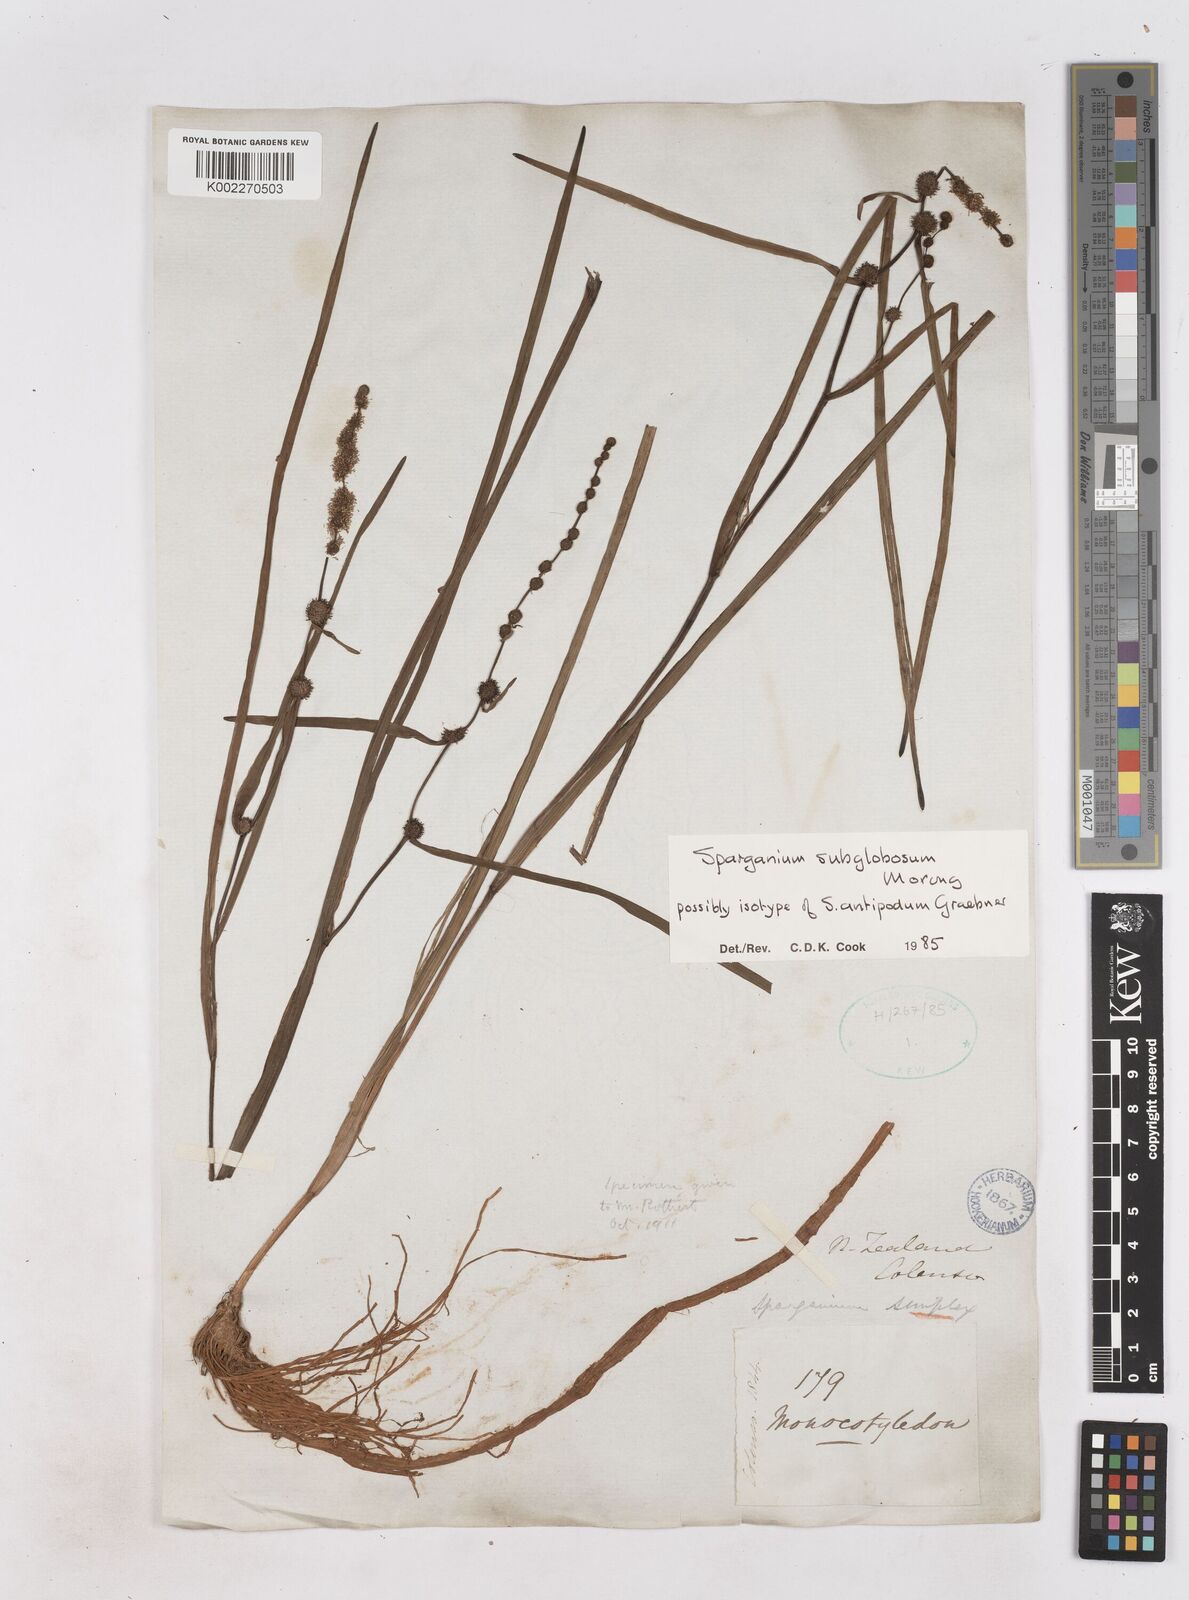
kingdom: Plantae
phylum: Tracheophyta
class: Liliopsida
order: Poales
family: Typhaceae
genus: Sparganium
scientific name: Sparganium subglobosum
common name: Burr­-reed
